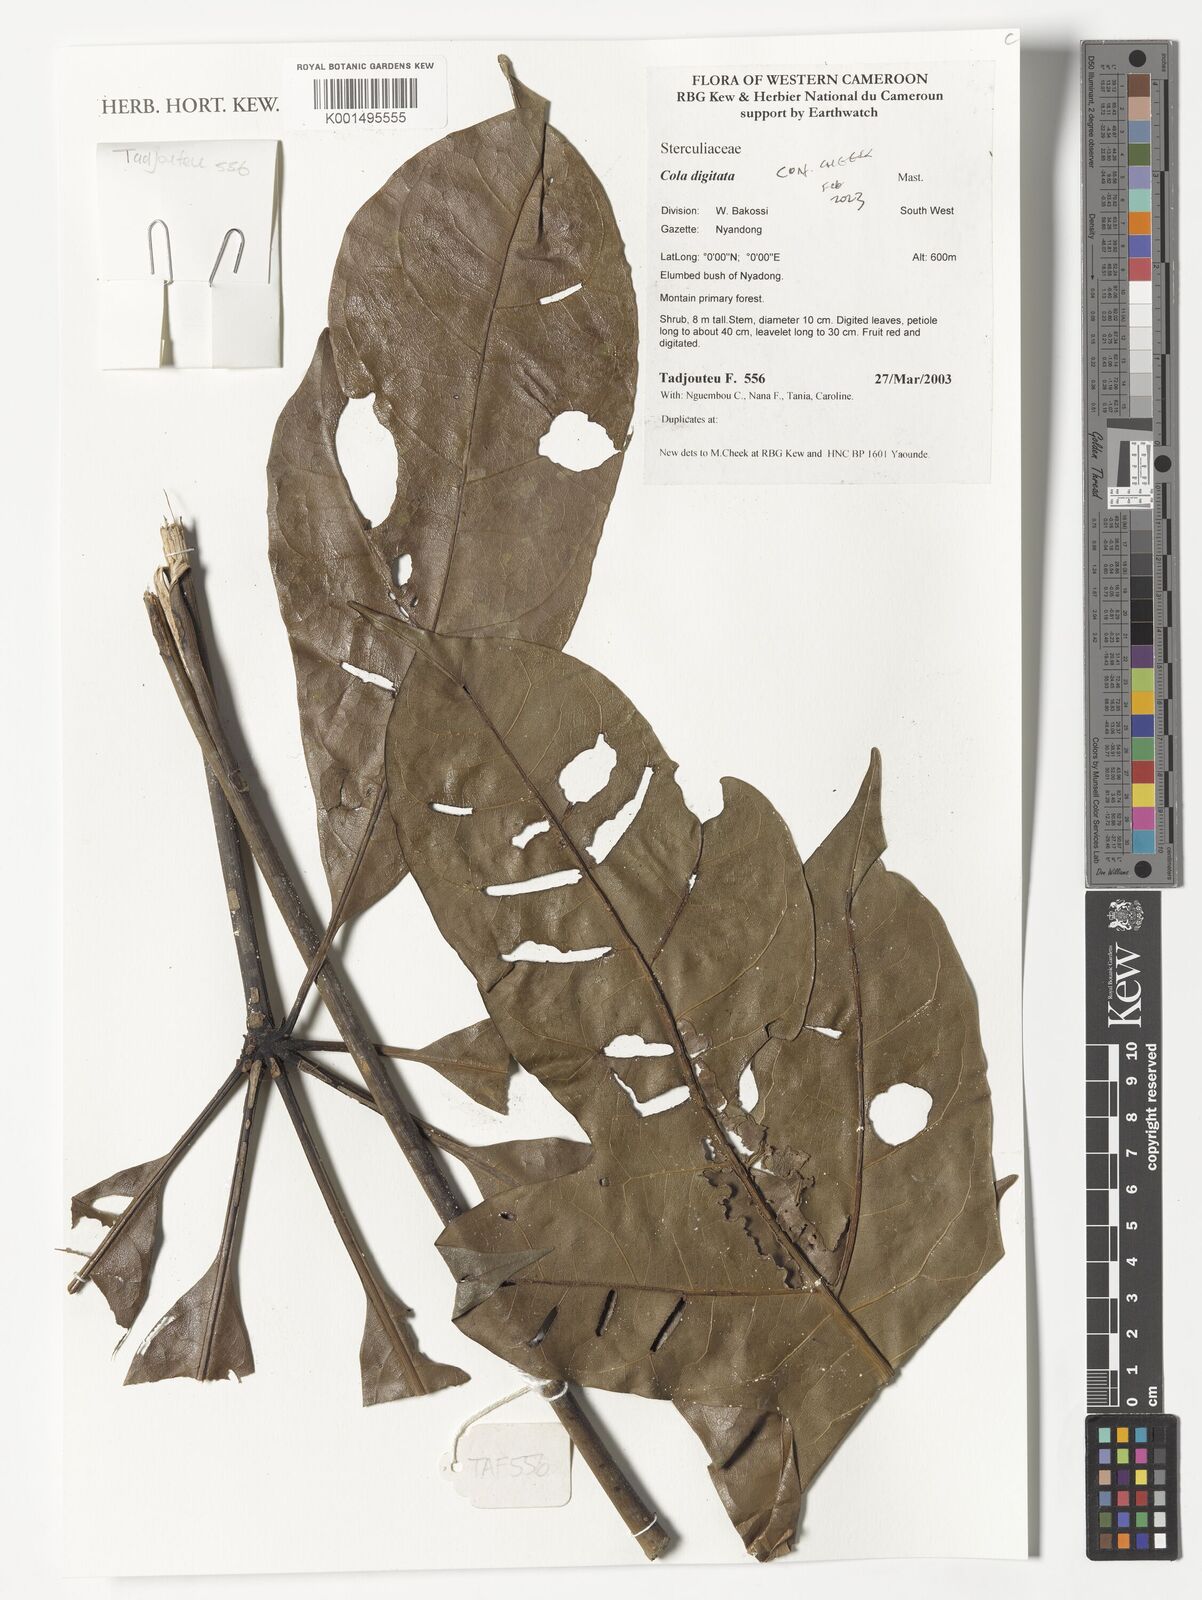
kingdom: Plantae
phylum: Tracheophyta
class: Magnoliopsida
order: Malvales
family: Malvaceae
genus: Cola
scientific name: Cola digitata
